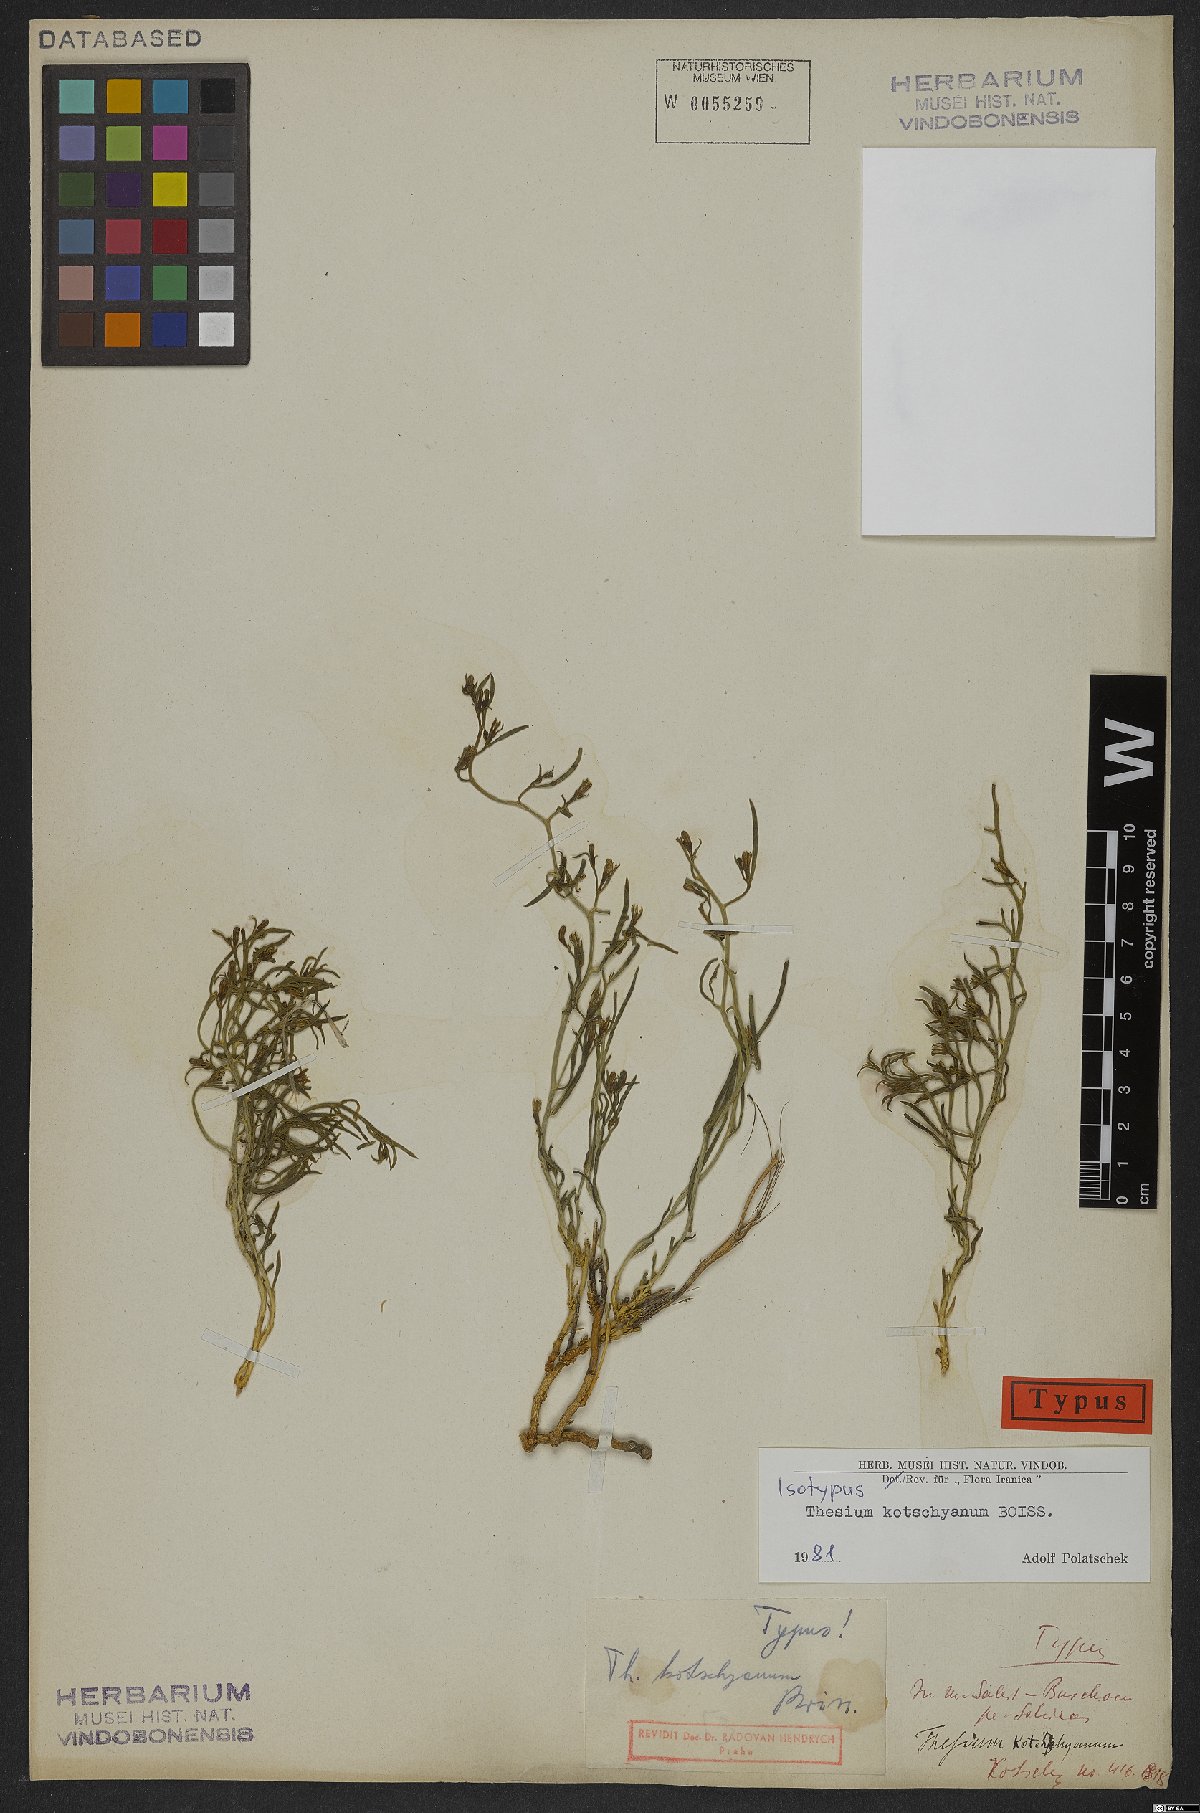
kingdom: Plantae
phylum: Tracheophyta
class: Magnoliopsida
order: Santalales
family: Thesiaceae
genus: Thesium
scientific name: Thesium kotschyanum
